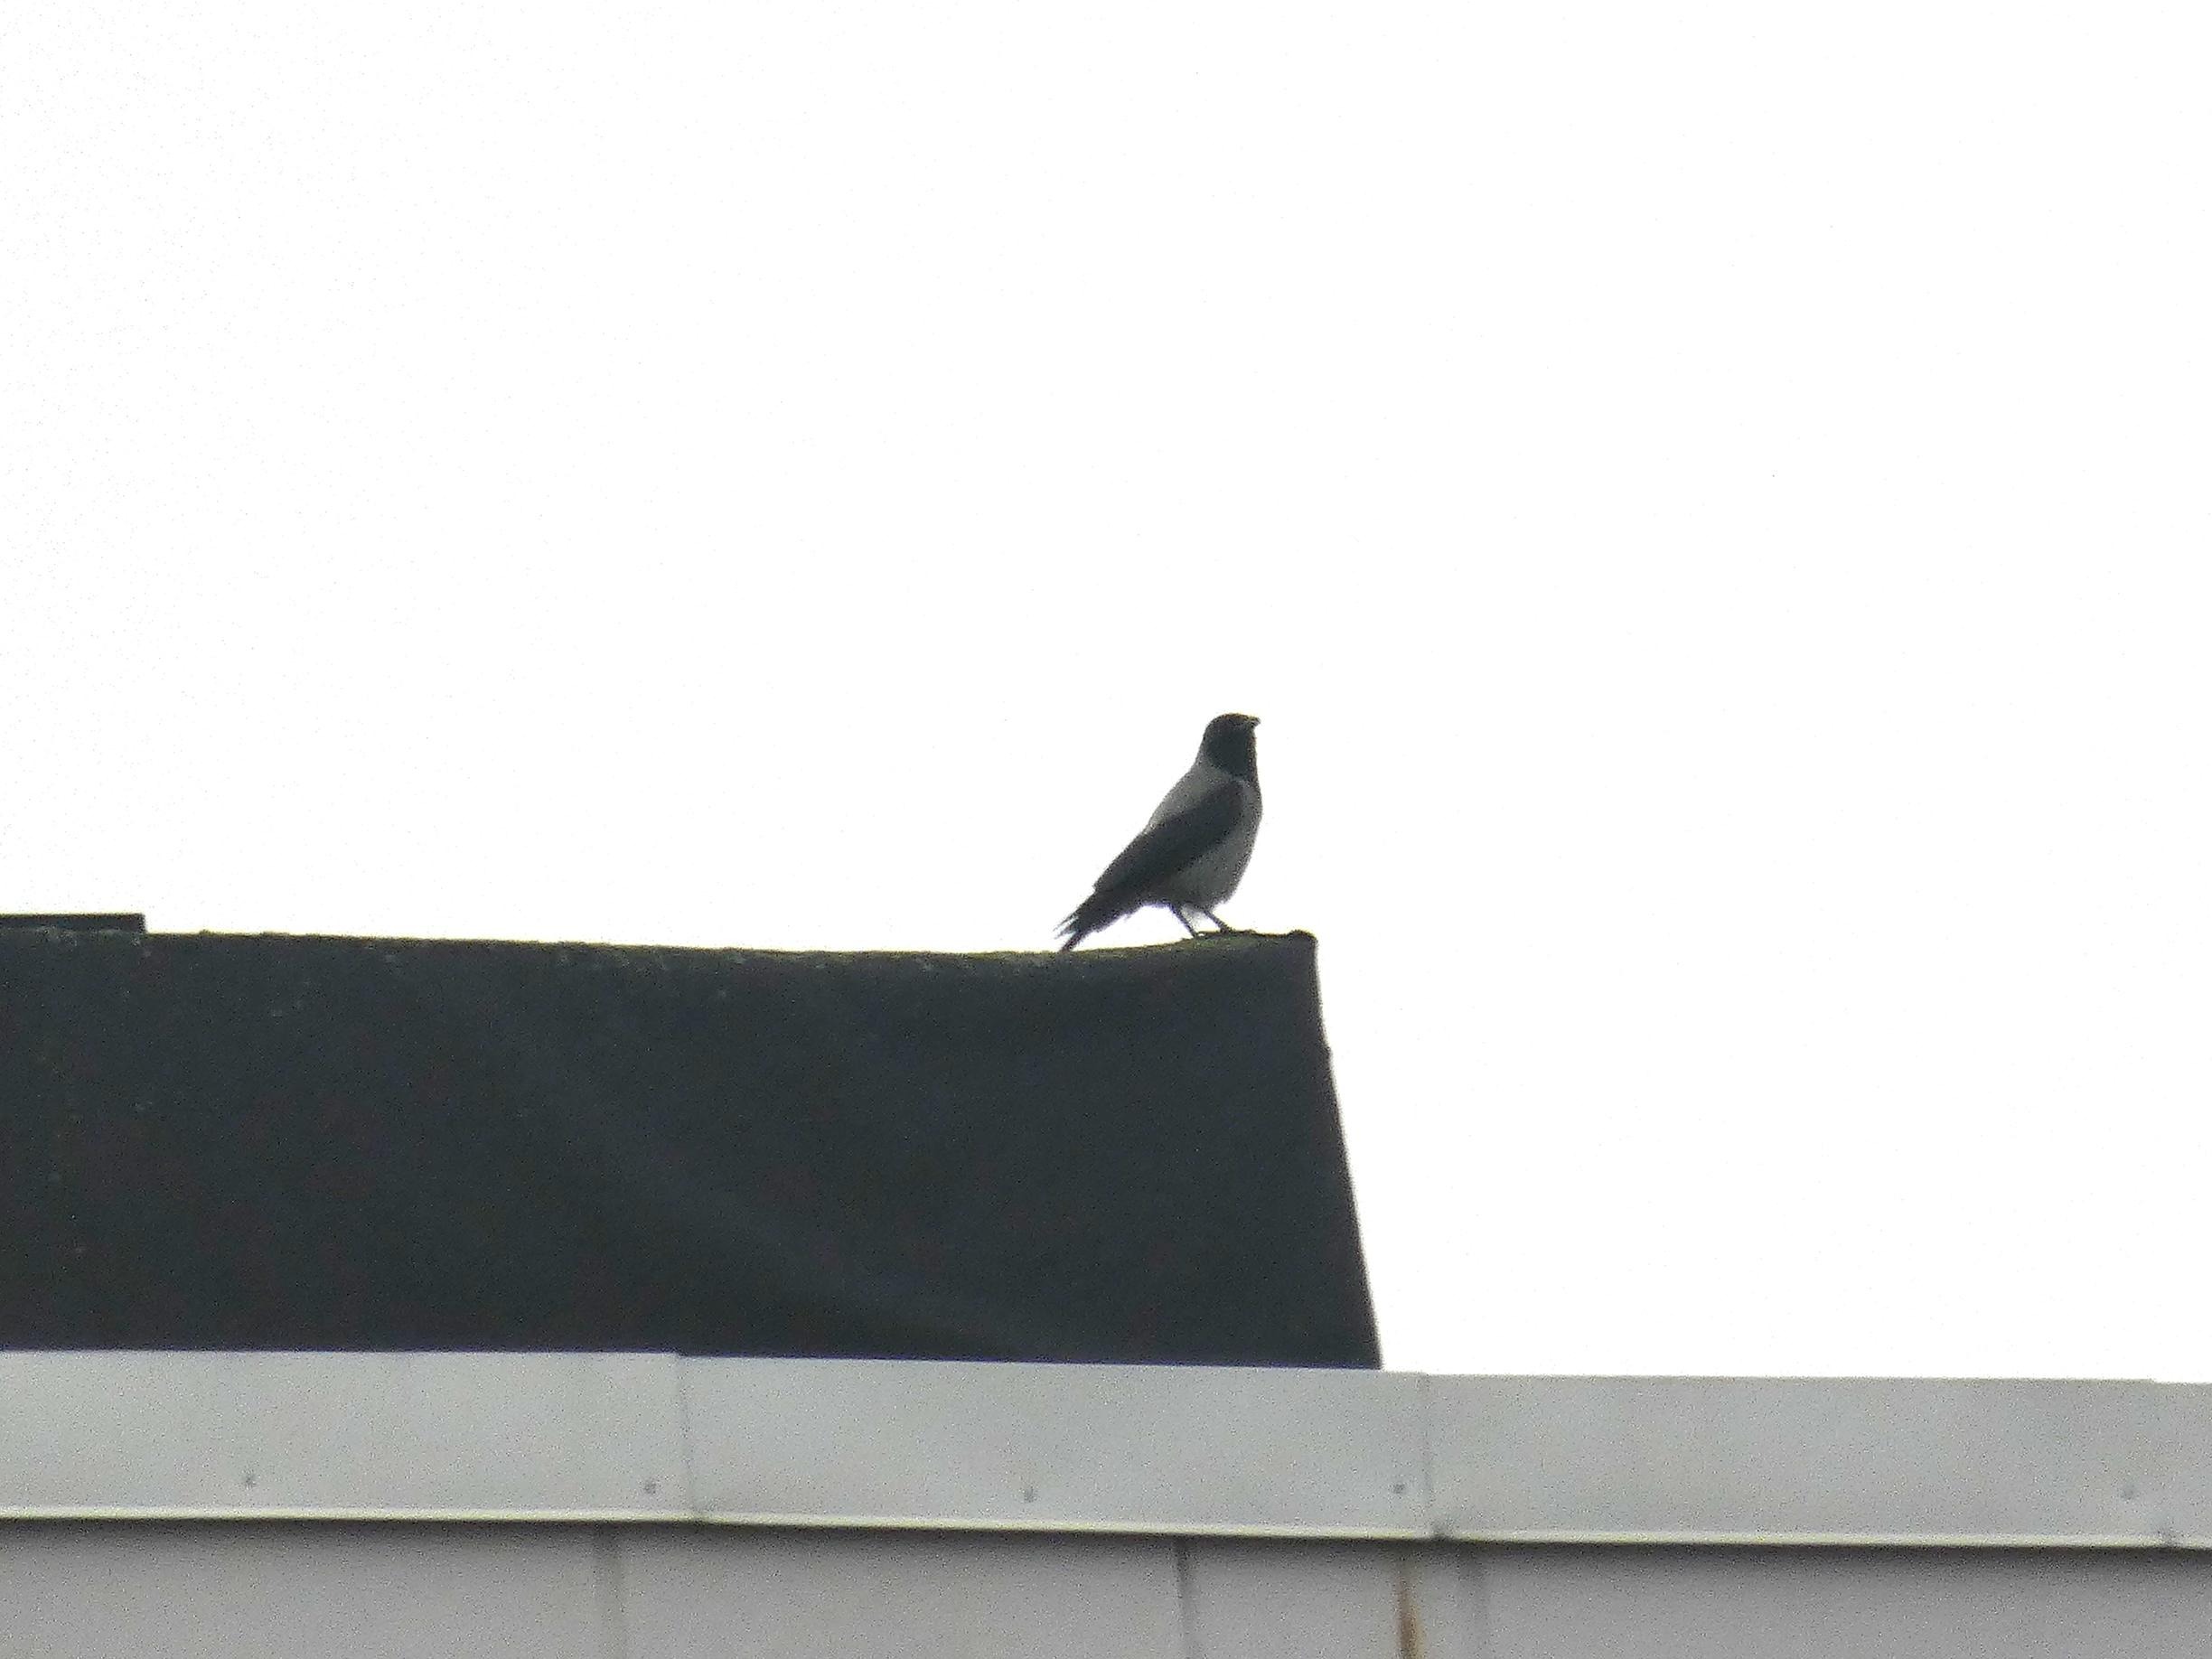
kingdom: Animalia
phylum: Chordata
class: Aves
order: Passeriformes
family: Corvidae
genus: Corvus
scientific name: Corvus cornix
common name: Gråkrage
